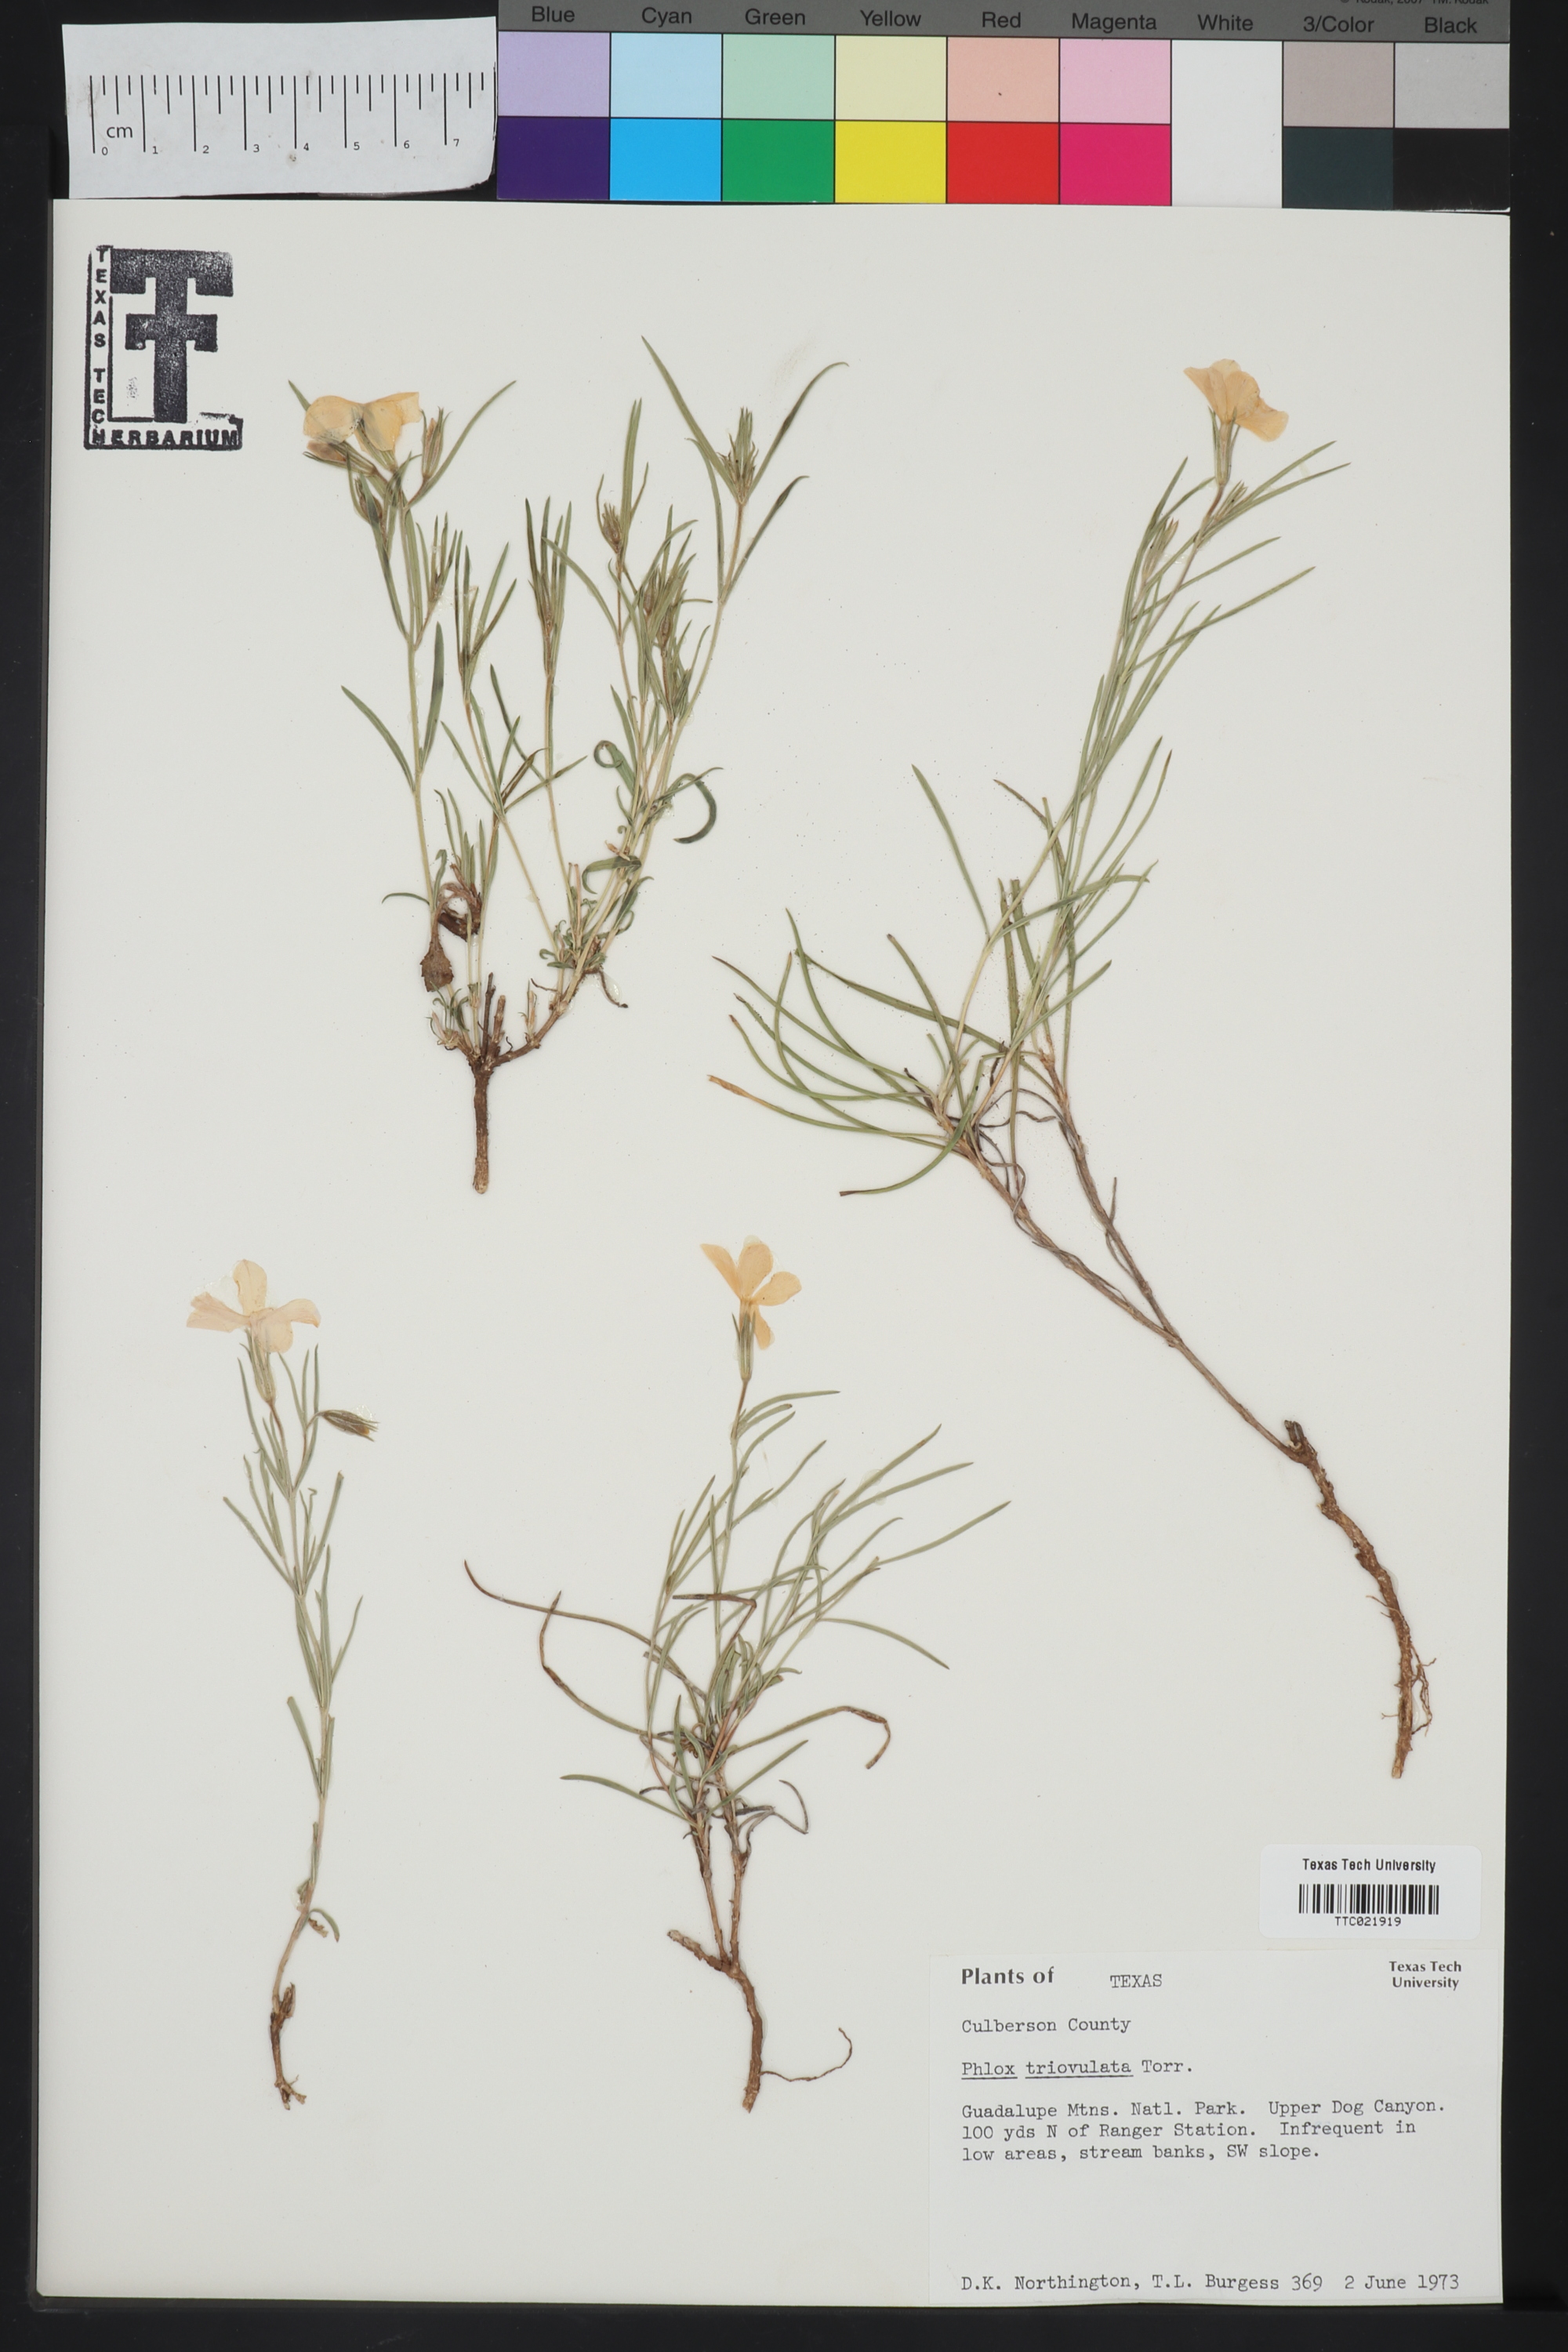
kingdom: Plantae
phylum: Tracheophyta
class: Magnoliopsida
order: Ericales
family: Polemoniaceae
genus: Phlox
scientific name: Phlox triovulata
